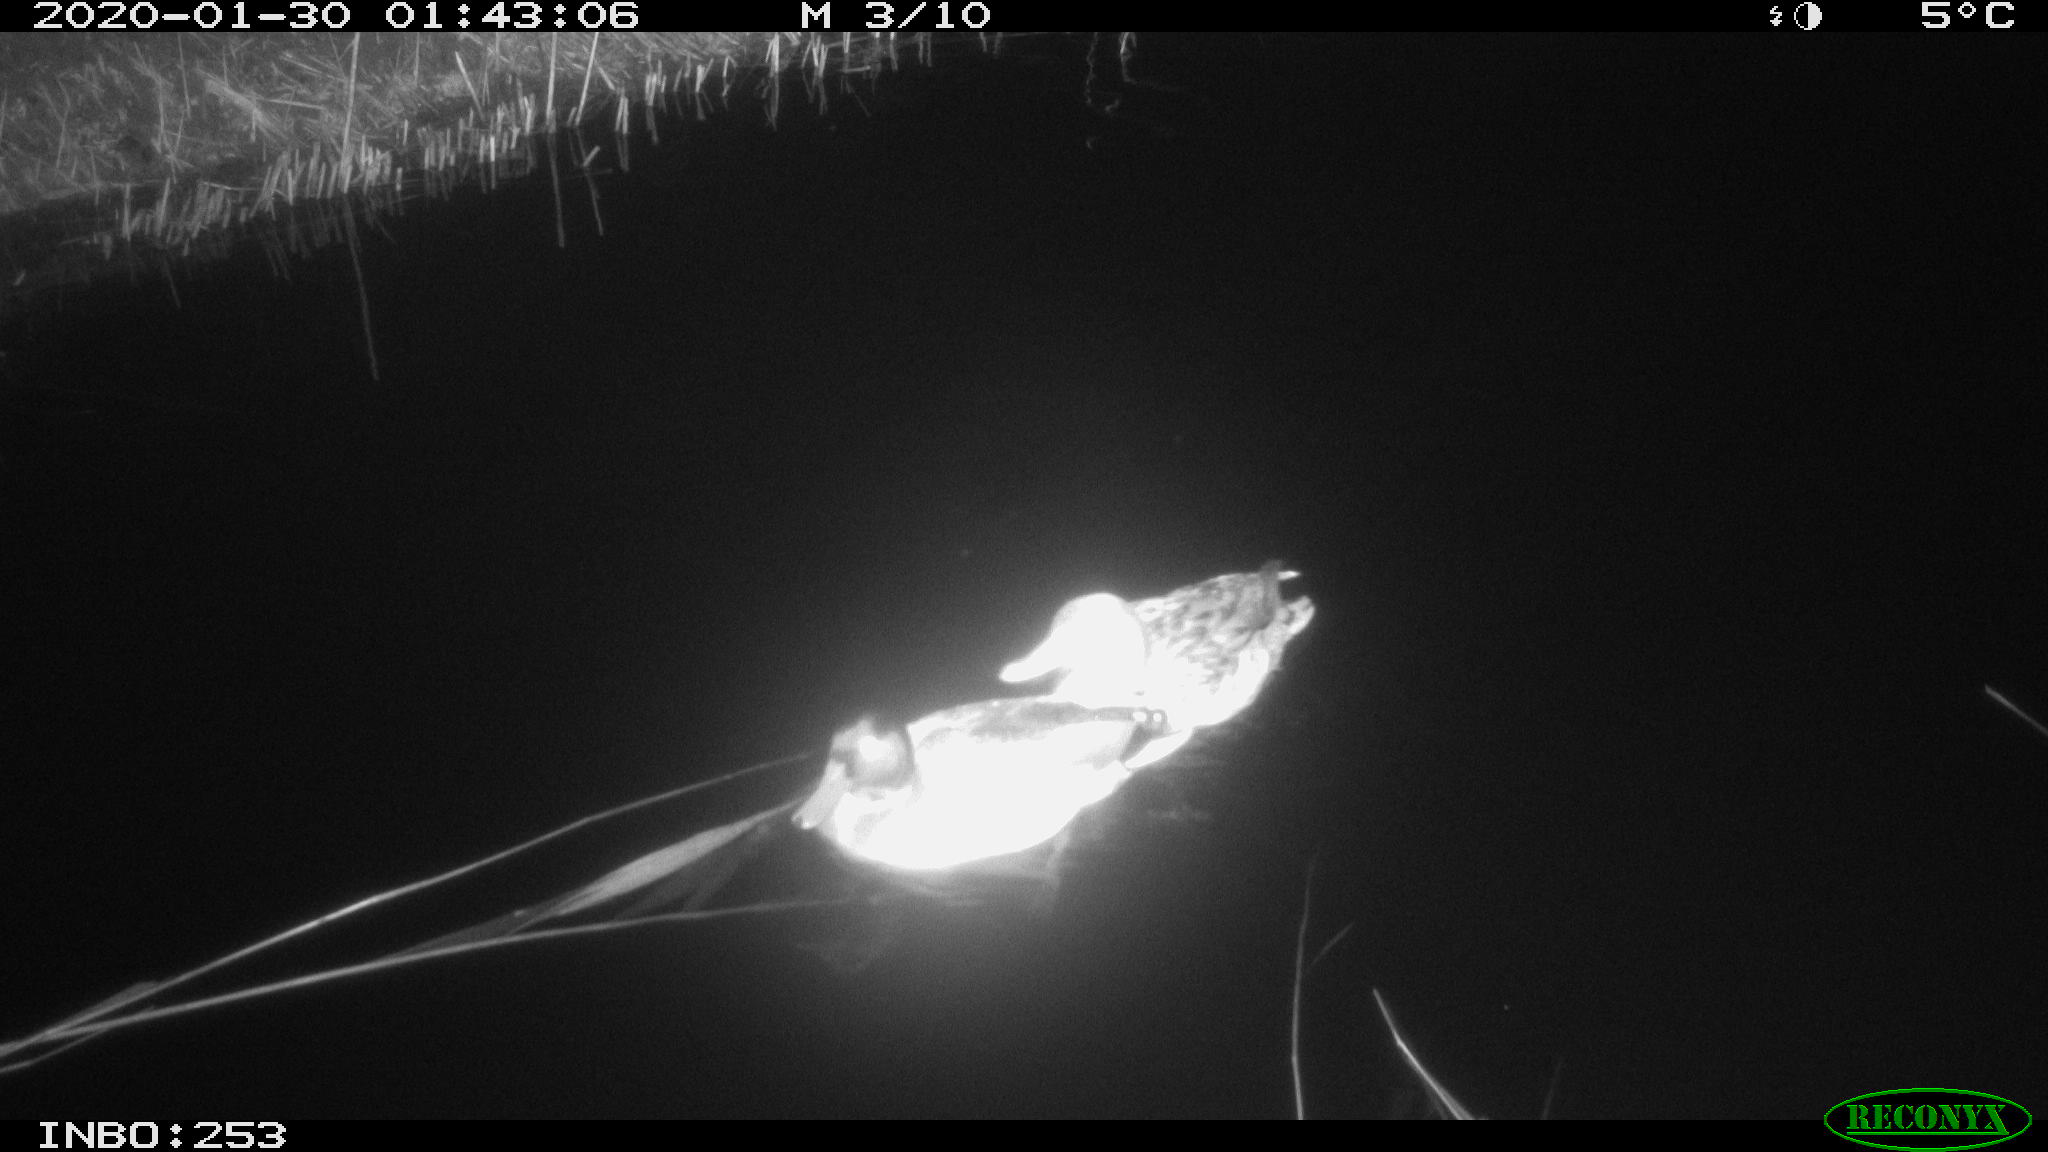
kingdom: Animalia
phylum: Chordata
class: Aves
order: Anseriformes
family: Anatidae
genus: Anas
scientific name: Anas platyrhynchos
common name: Mallard
